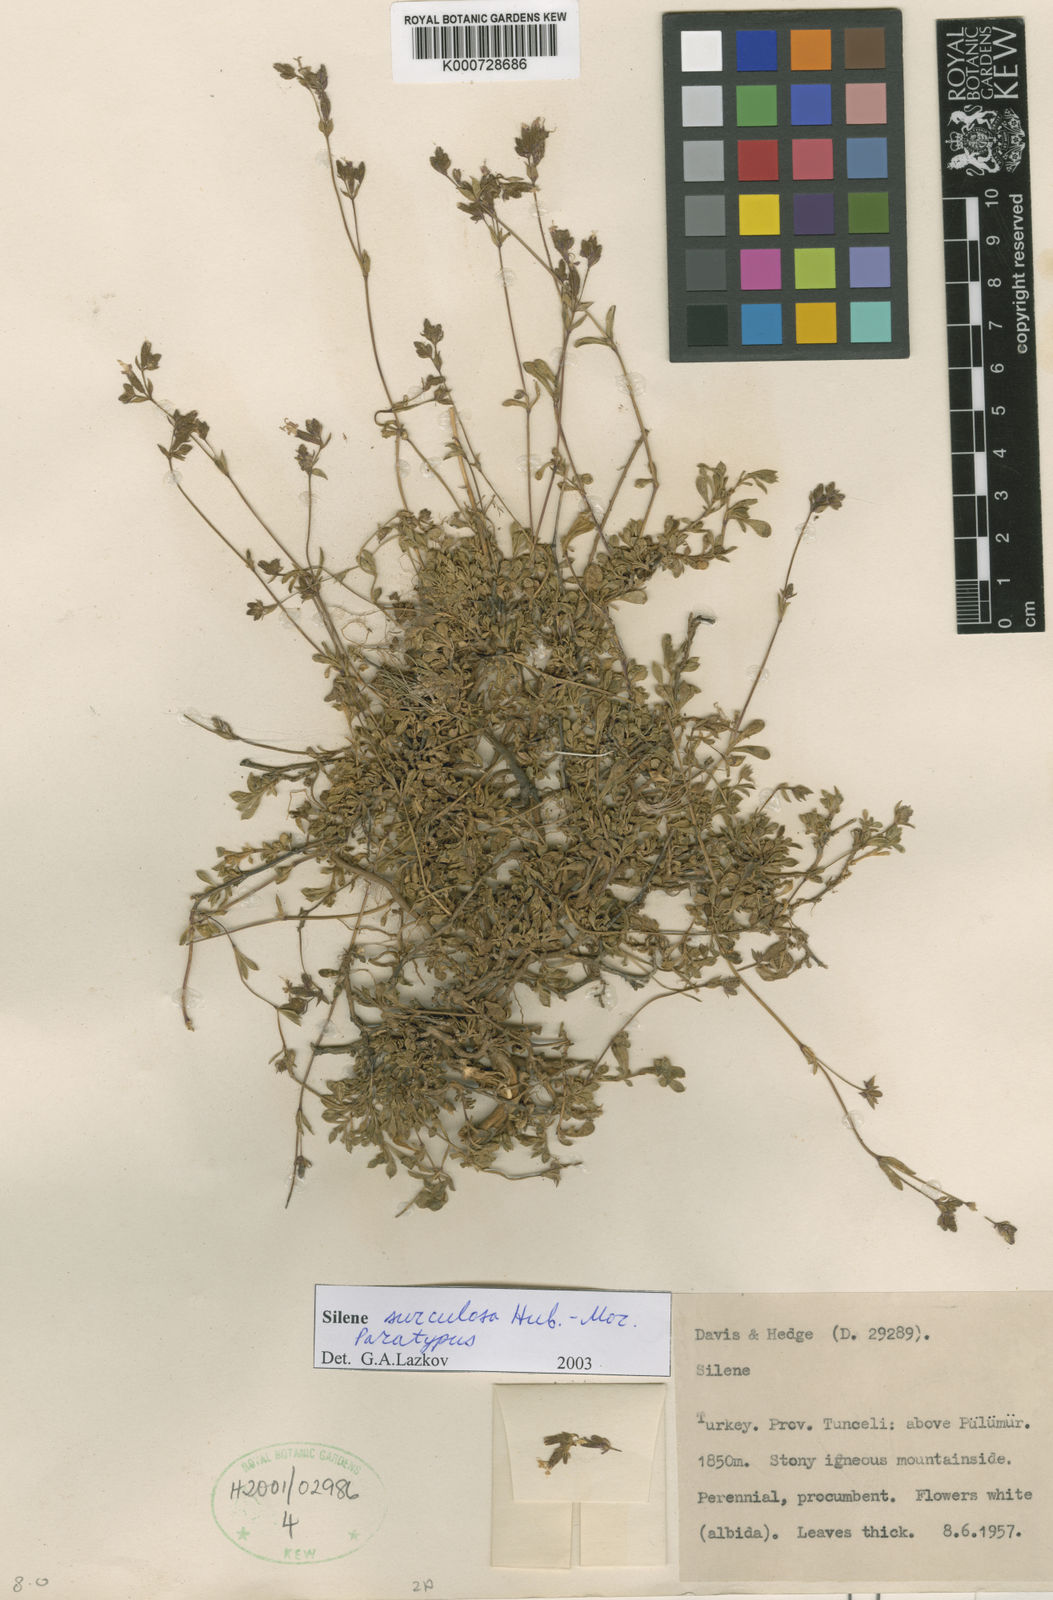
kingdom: Plantae
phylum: Tracheophyta
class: Magnoliopsida
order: Caryophyllales
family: Caryophyllaceae
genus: Silene
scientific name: Silene surculosa
